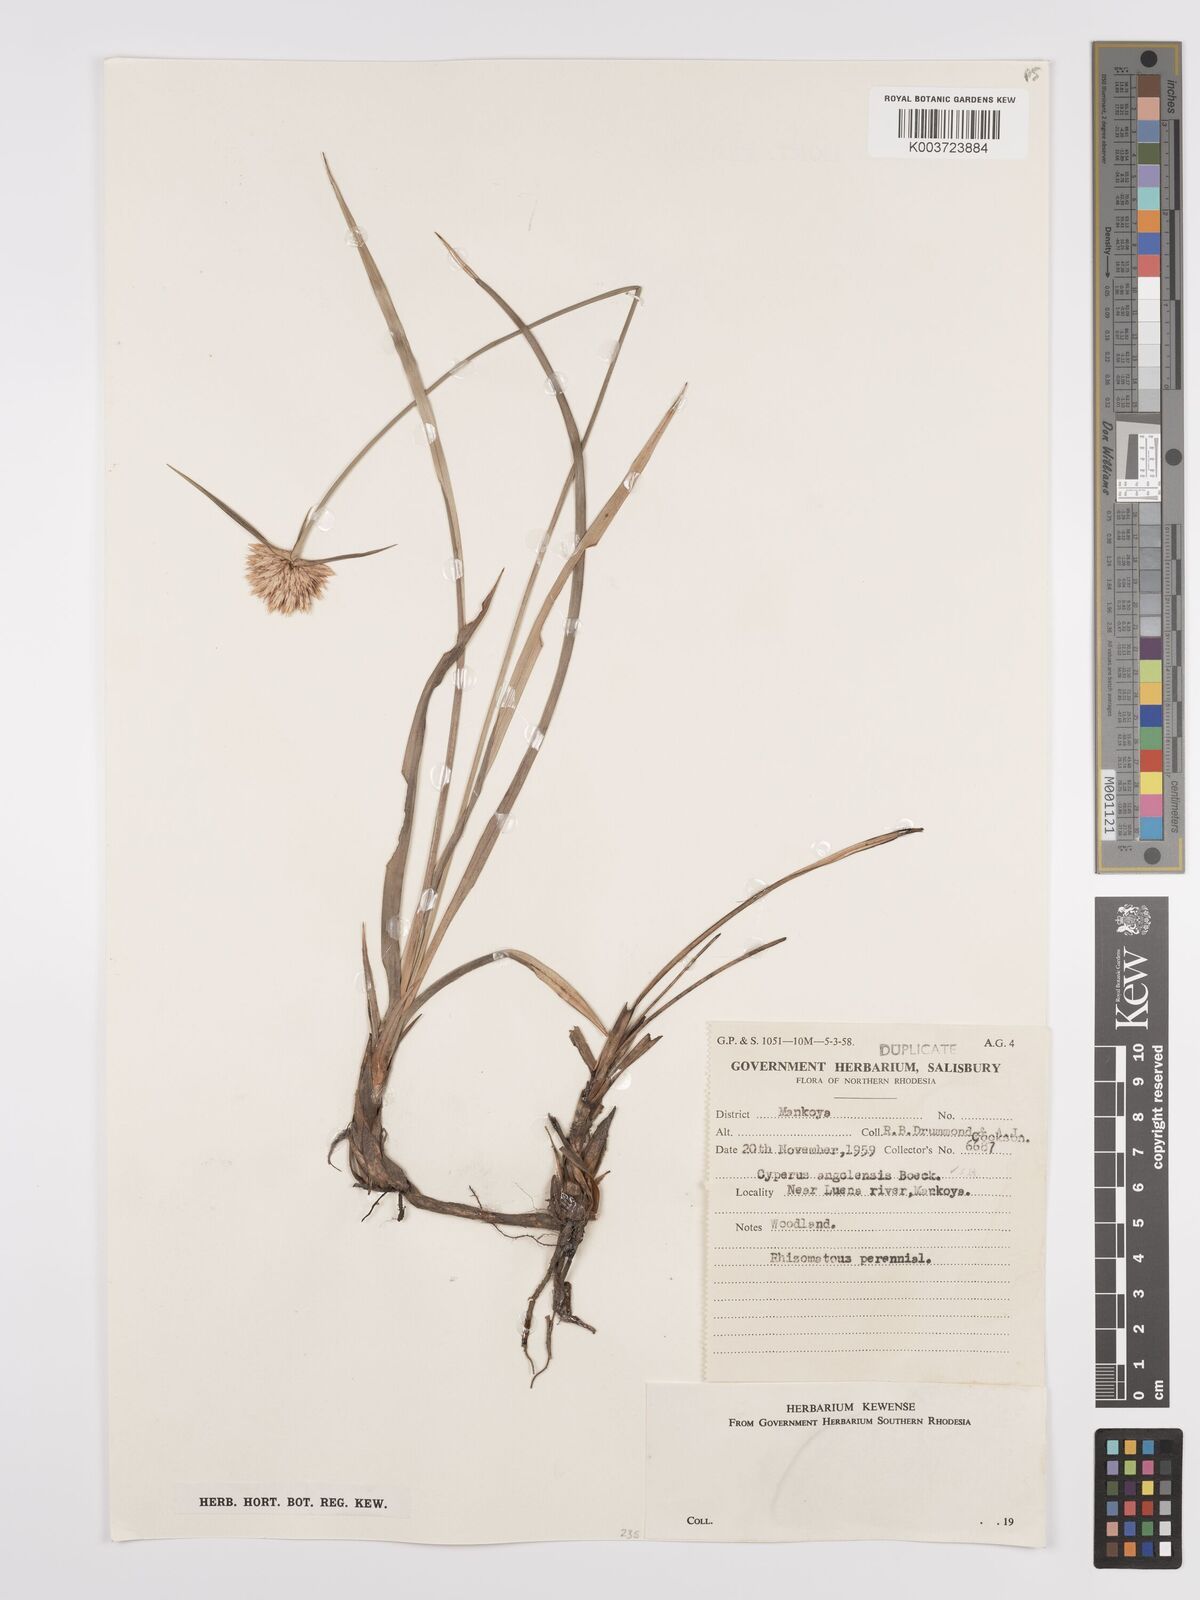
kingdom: Plantae
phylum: Tracheophyta
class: Liliopsida
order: Poales
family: Cyperaceae
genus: Cyperus
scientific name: Cyperus angolensis
